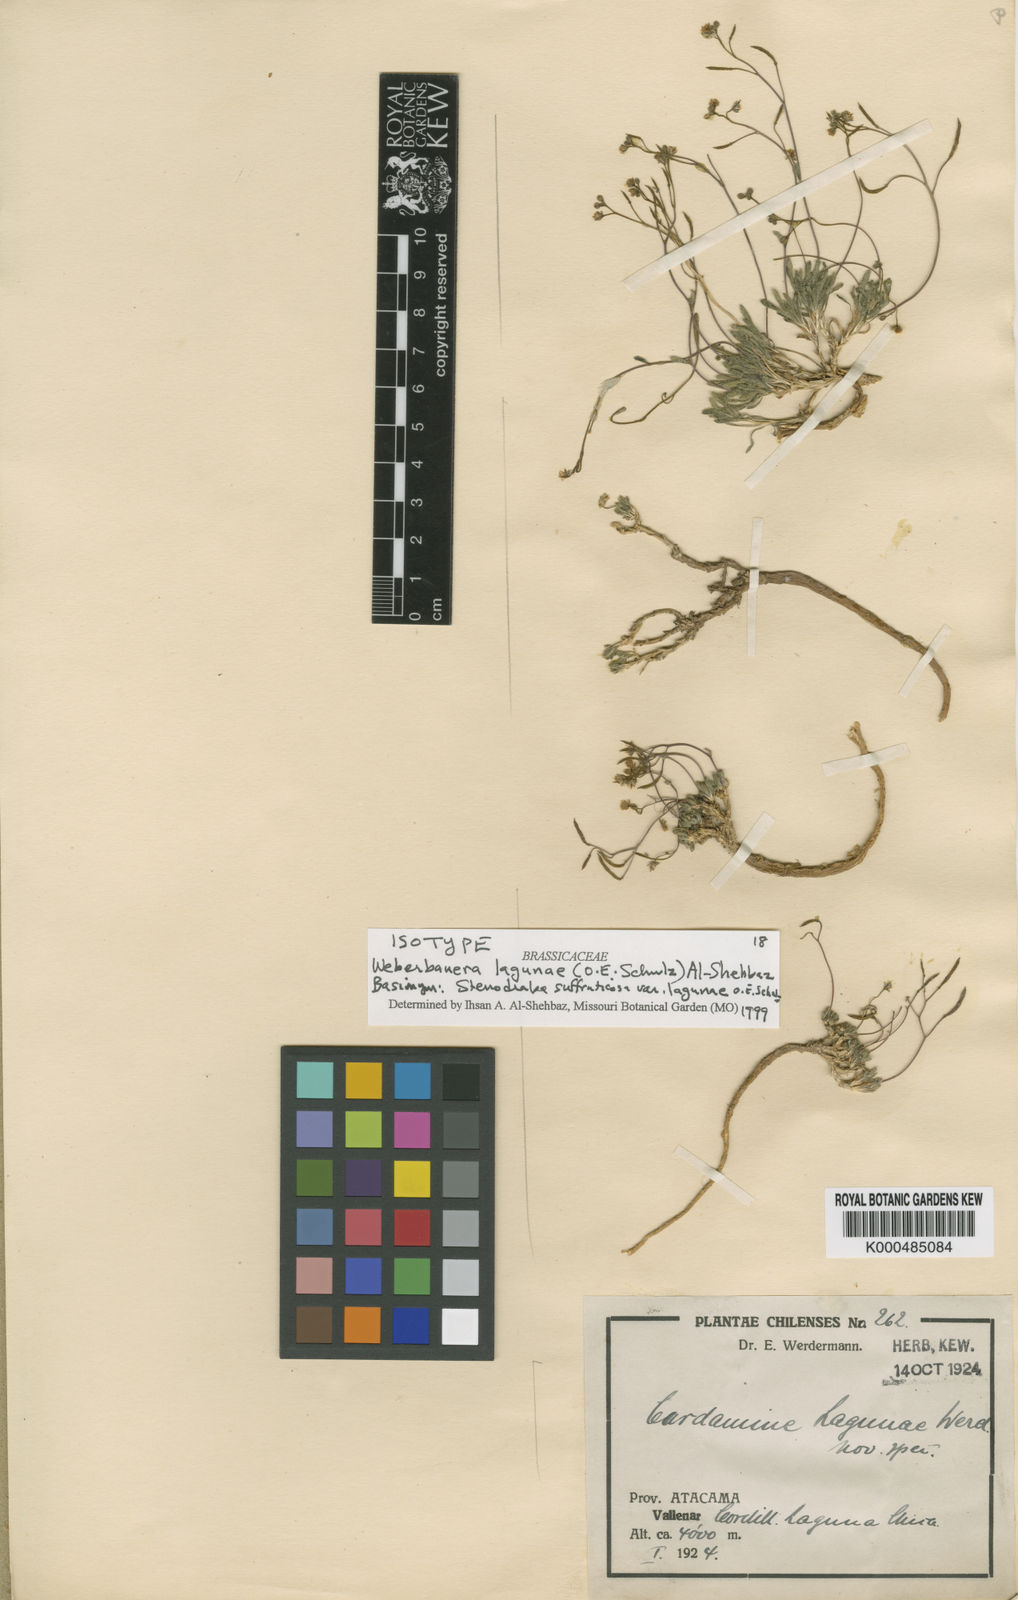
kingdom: Plantae
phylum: Tracheophyta
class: Magnoliopsida
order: Brassicales
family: Brassicaceae
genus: Stenodraba
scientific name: Stenodraba lagunae
